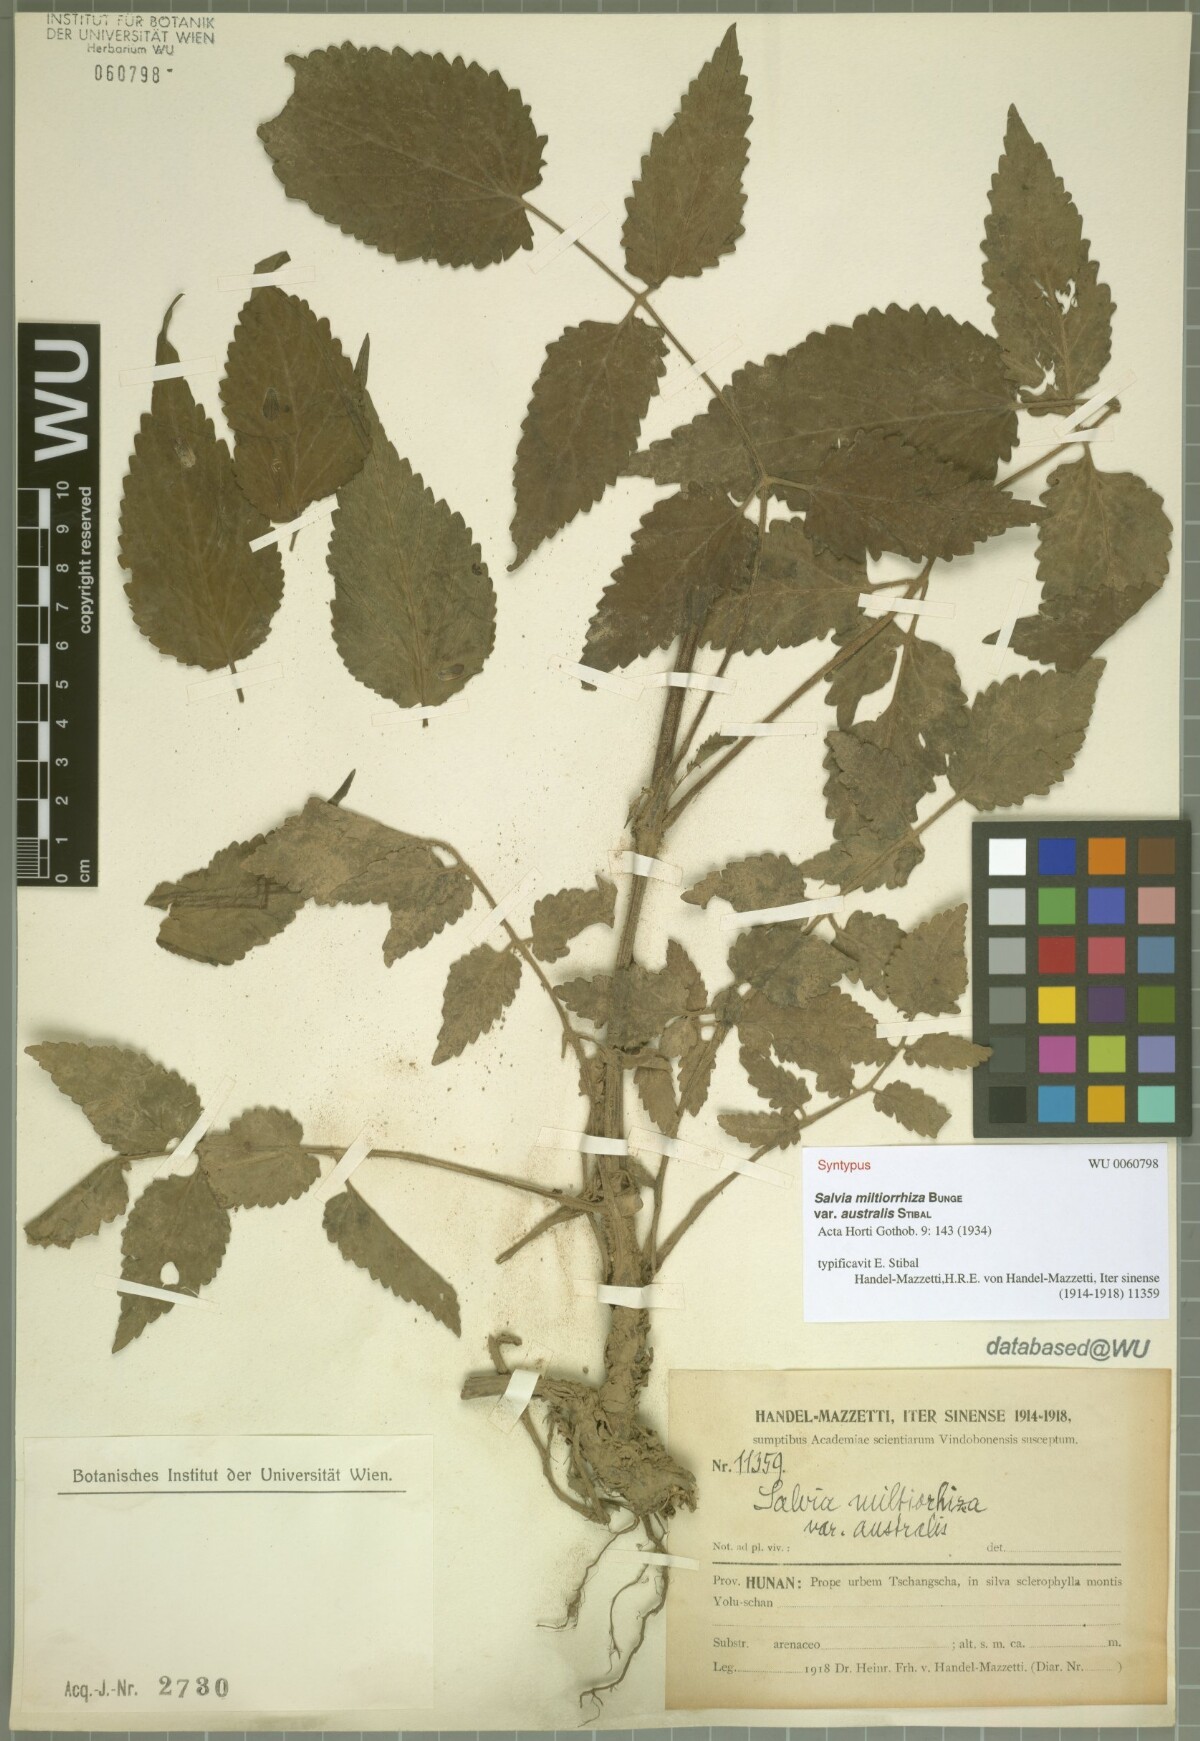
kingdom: Plantae
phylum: Tracheophyta
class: Magnoliopsida
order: Lamiales
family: Lamiaceae
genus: Salvia
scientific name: Salvia bowleyana
